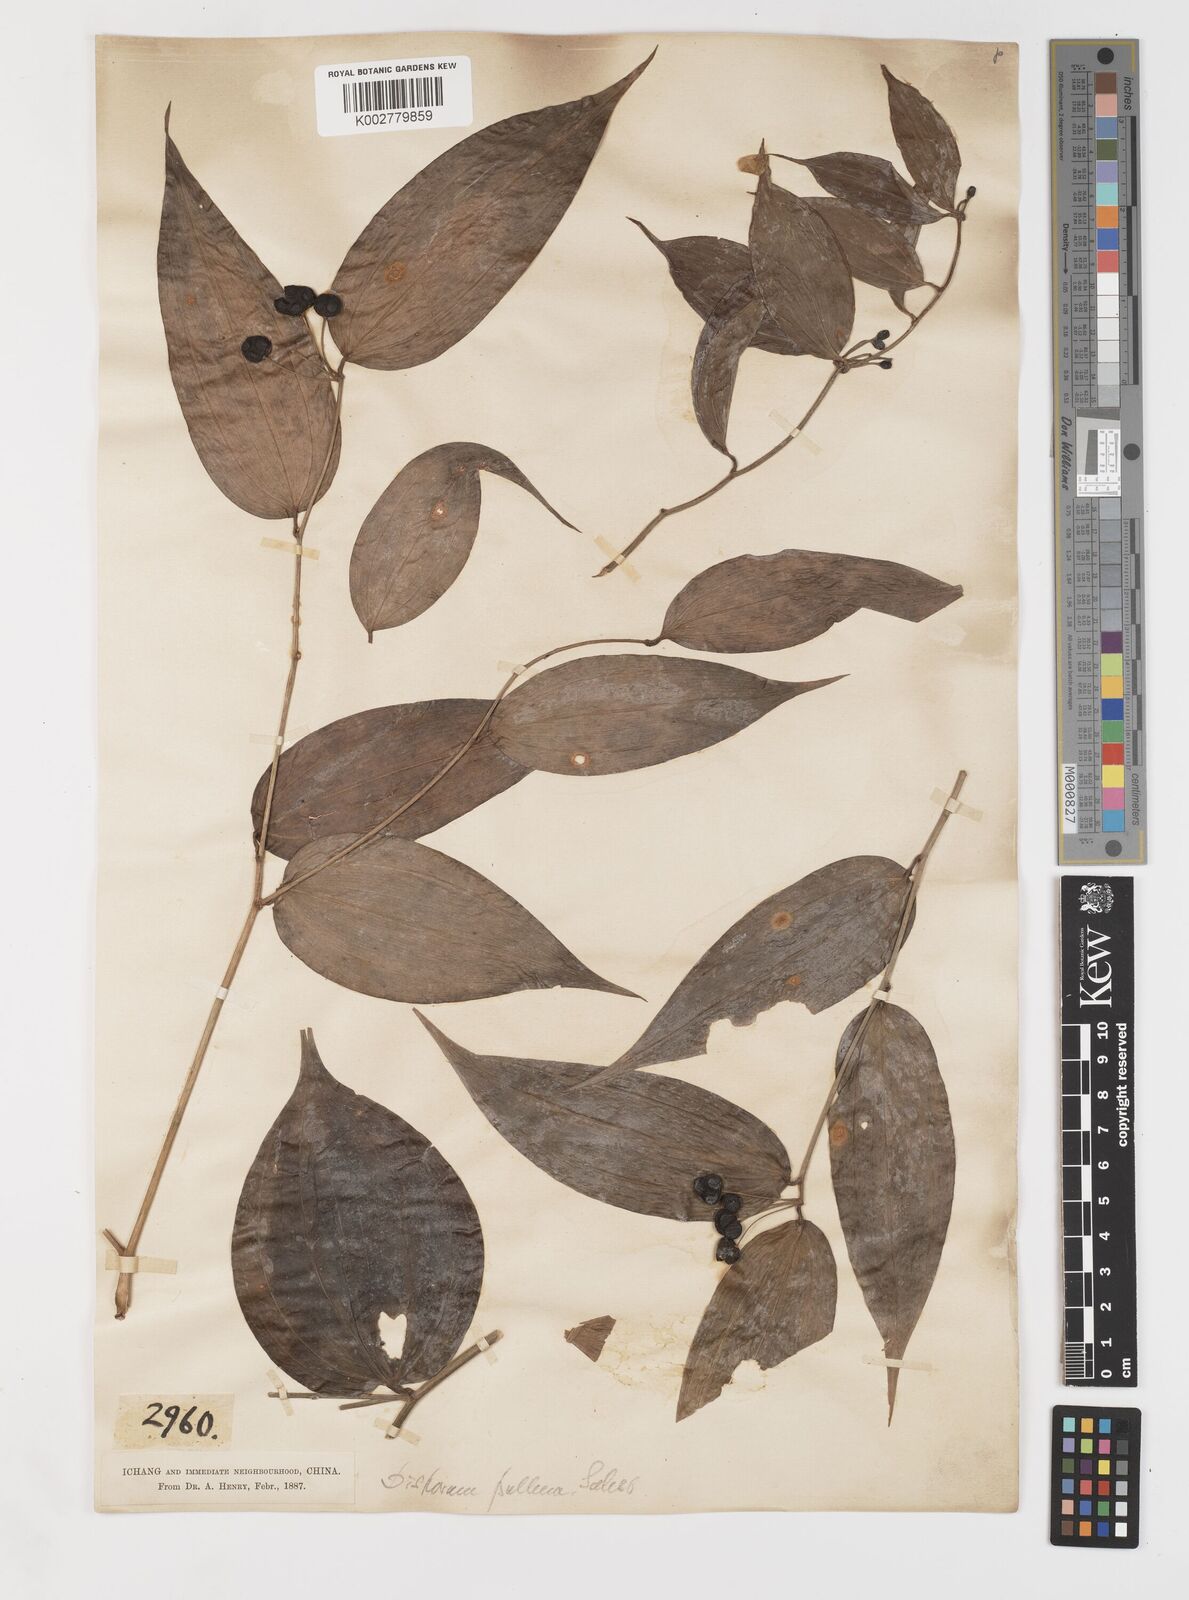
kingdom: Plantae
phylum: Tracheophyta
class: Liliopsida
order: Liliales
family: Colchicaceae
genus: Disporum
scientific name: Disporum
